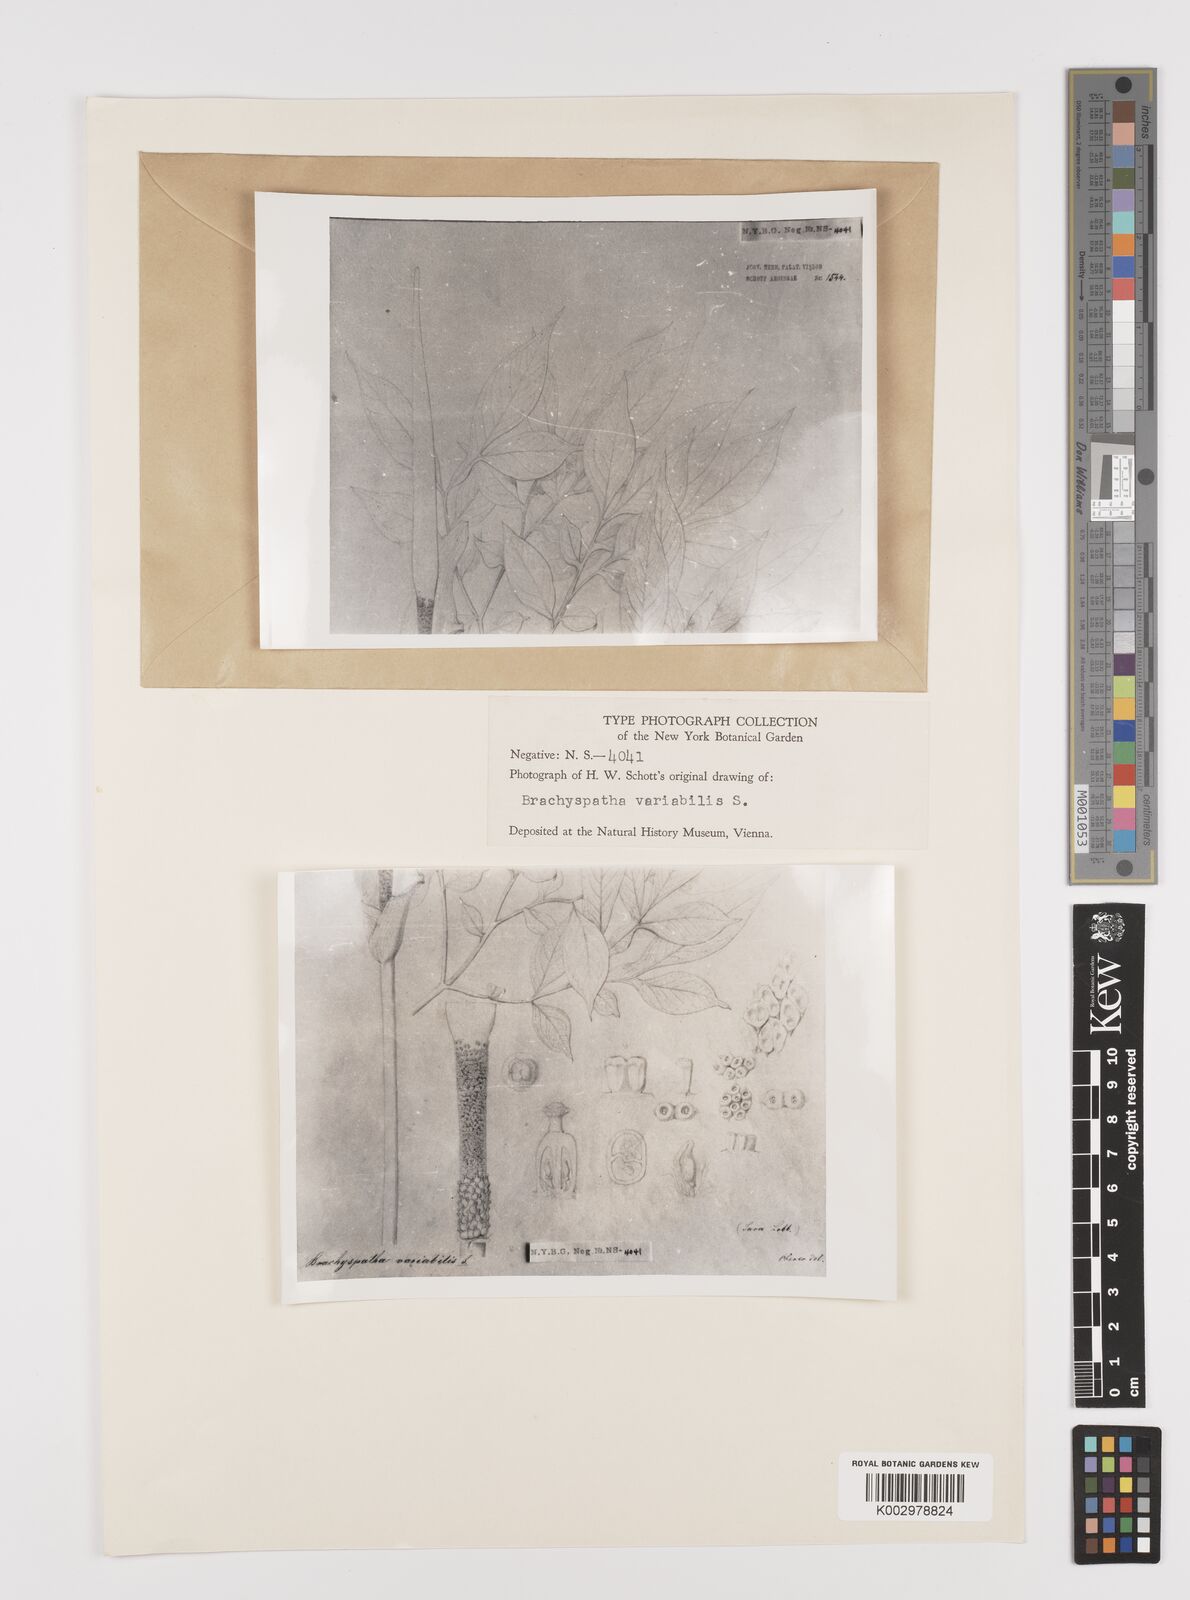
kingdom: Plantae
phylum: Tracheophyta
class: Liliopsida
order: Alismatales
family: Araceae
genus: Amorphophallus
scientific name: Amorphophallus variabilis
